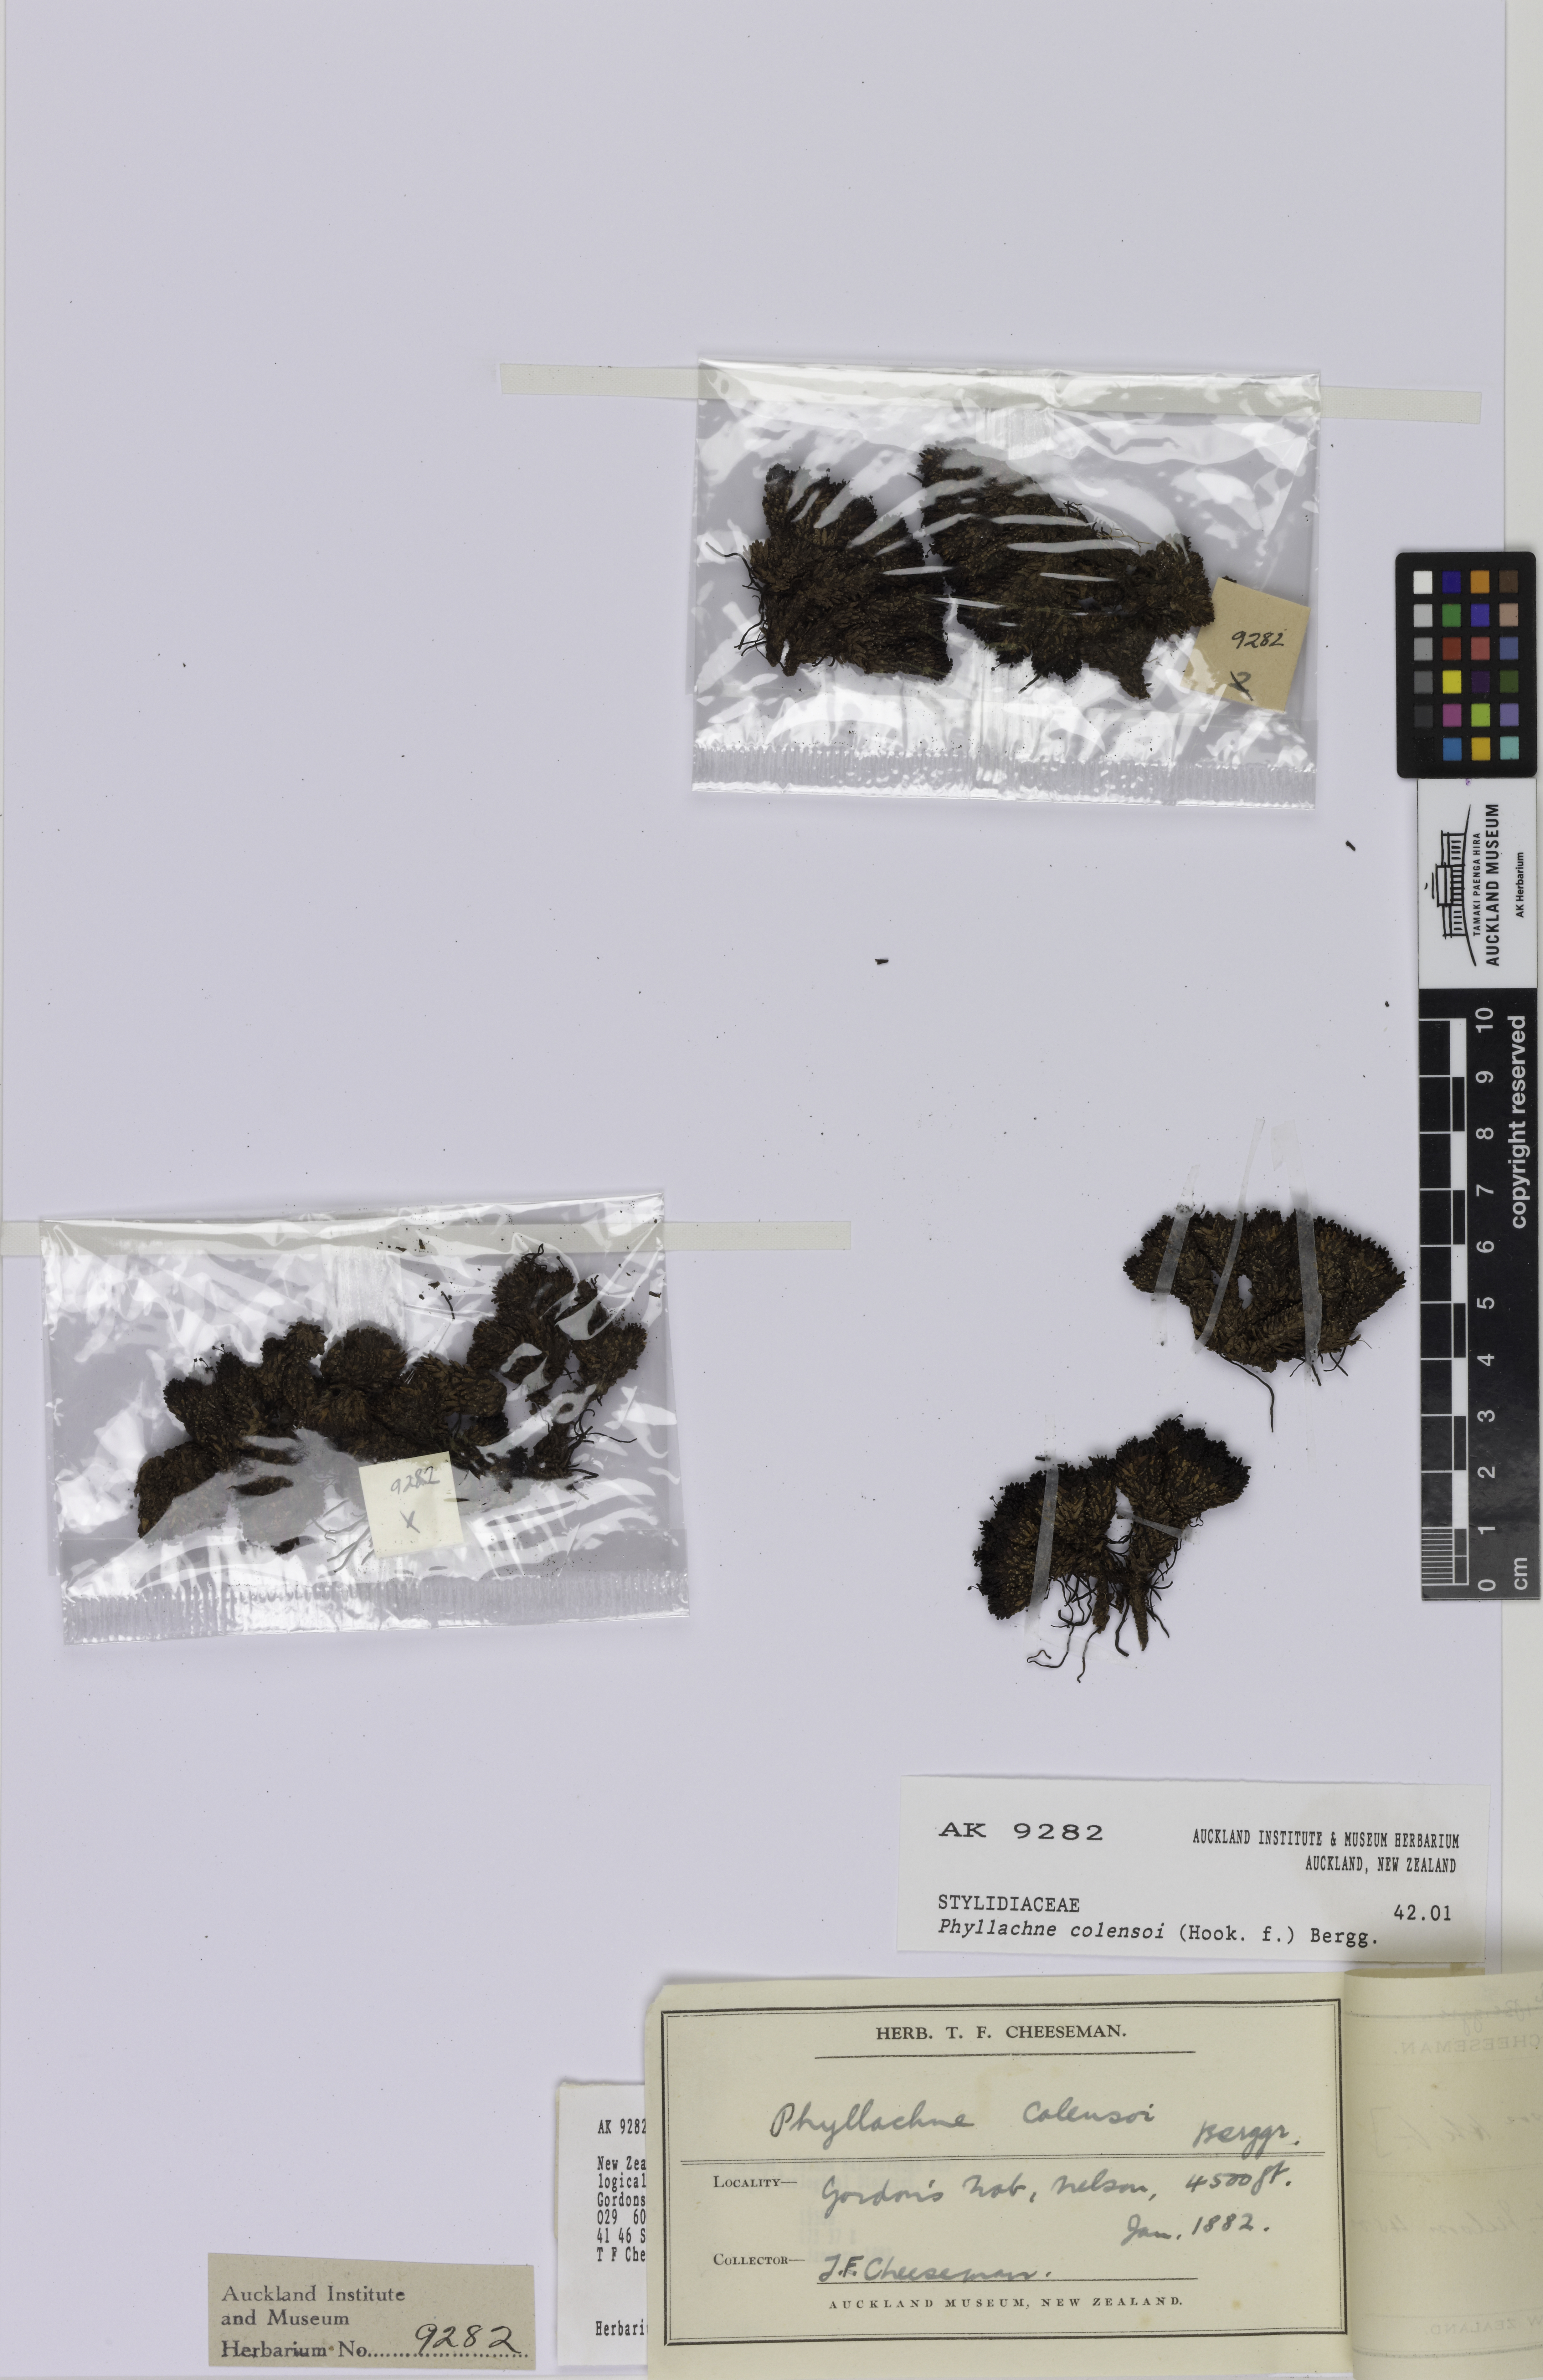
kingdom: Plantae
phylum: Tracheophyta
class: Magnoliopsida
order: Asterales
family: Stylidiaceae
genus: Phyllachne
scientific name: Phyllachne colensoi
